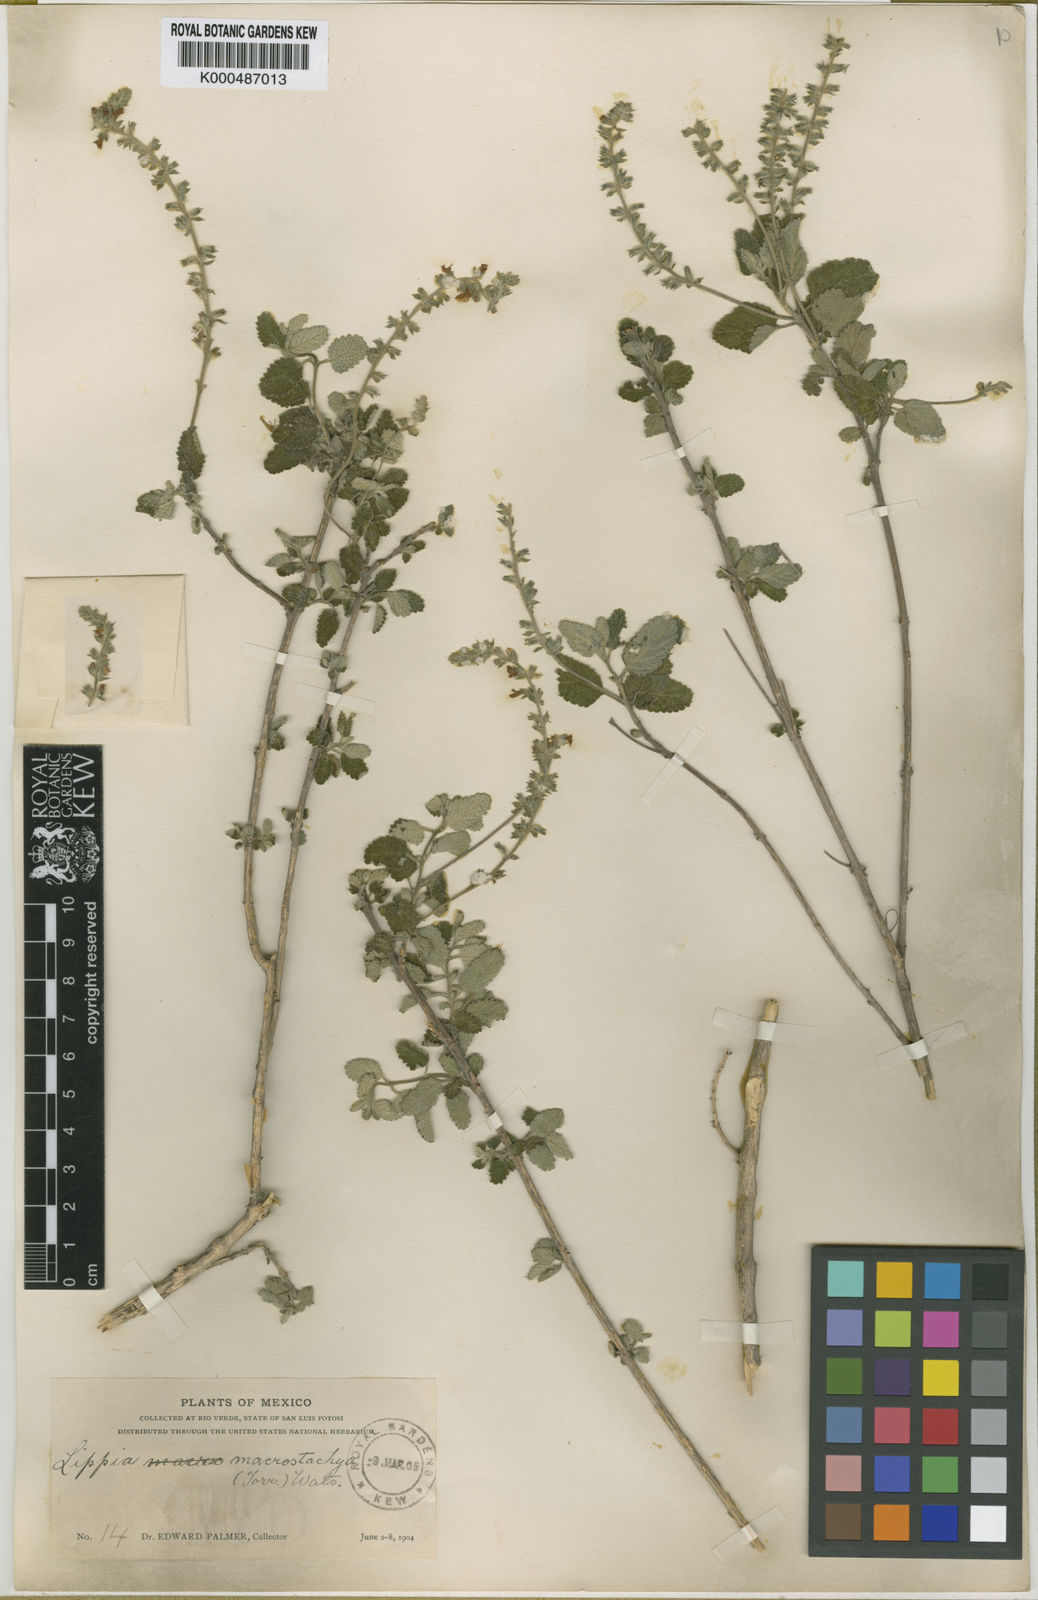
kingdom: Plantae
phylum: Tracheophyta
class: Magnoliopsida
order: Lamiales
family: Verbenaceae
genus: Aloysia
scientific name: Aloysia macrostachya
